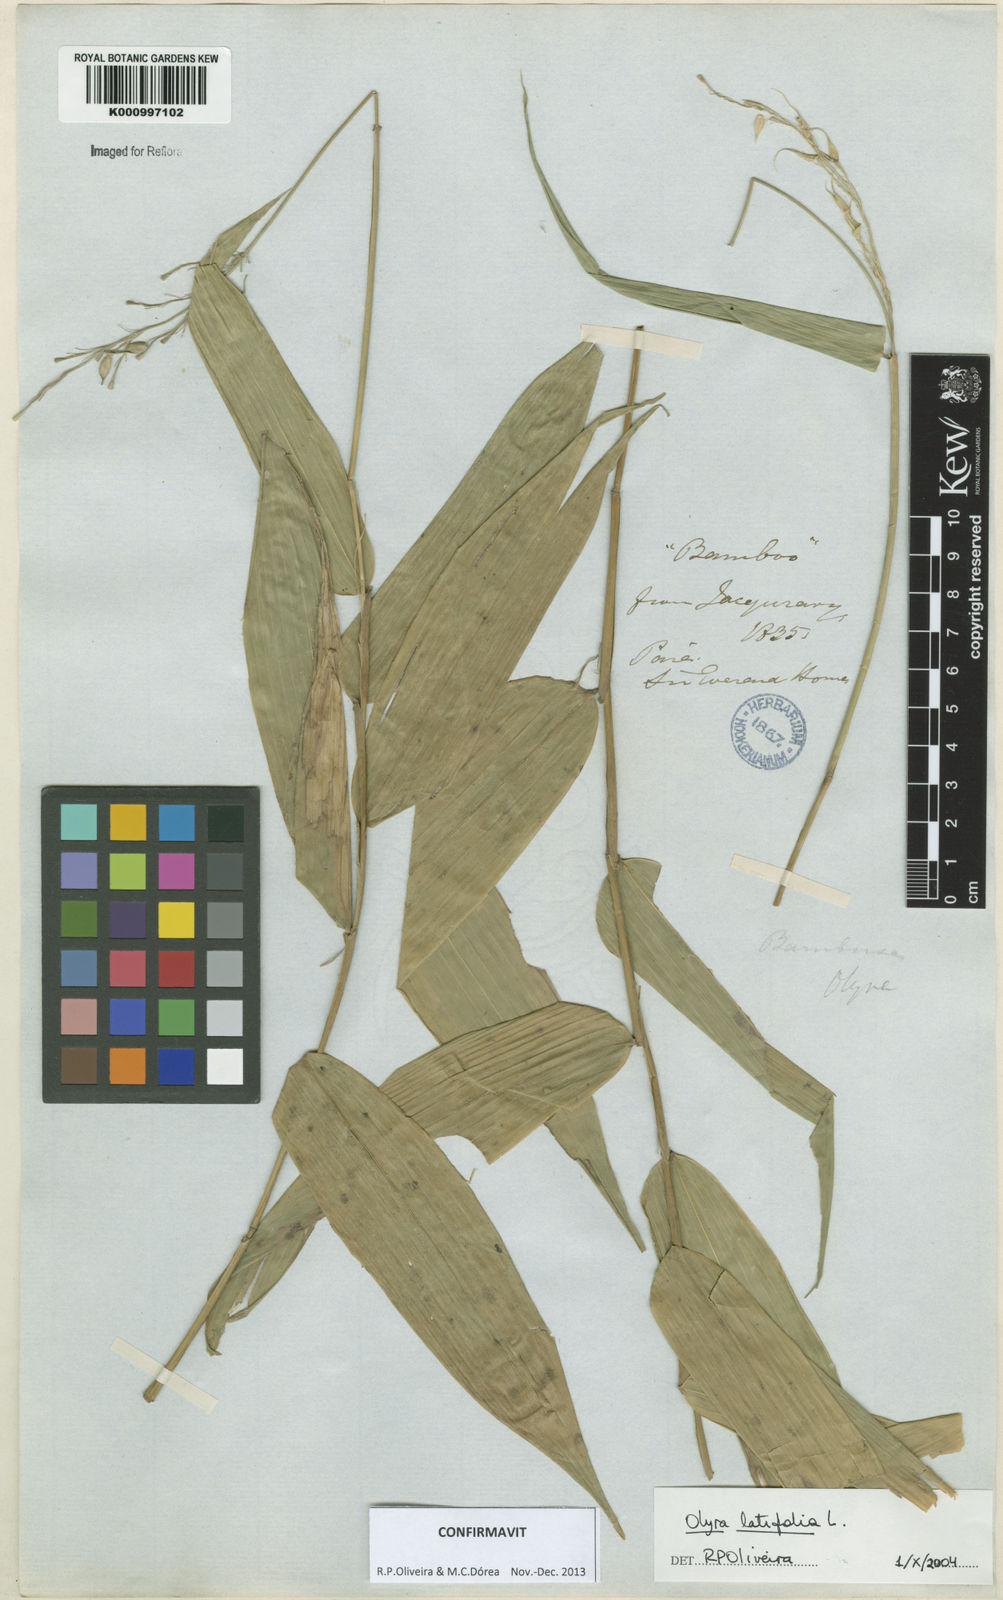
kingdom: Plantae
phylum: Tracheophyta
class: Liliopsida
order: Poales
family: Poaceae
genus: Olyra
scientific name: Olyra latifolia
